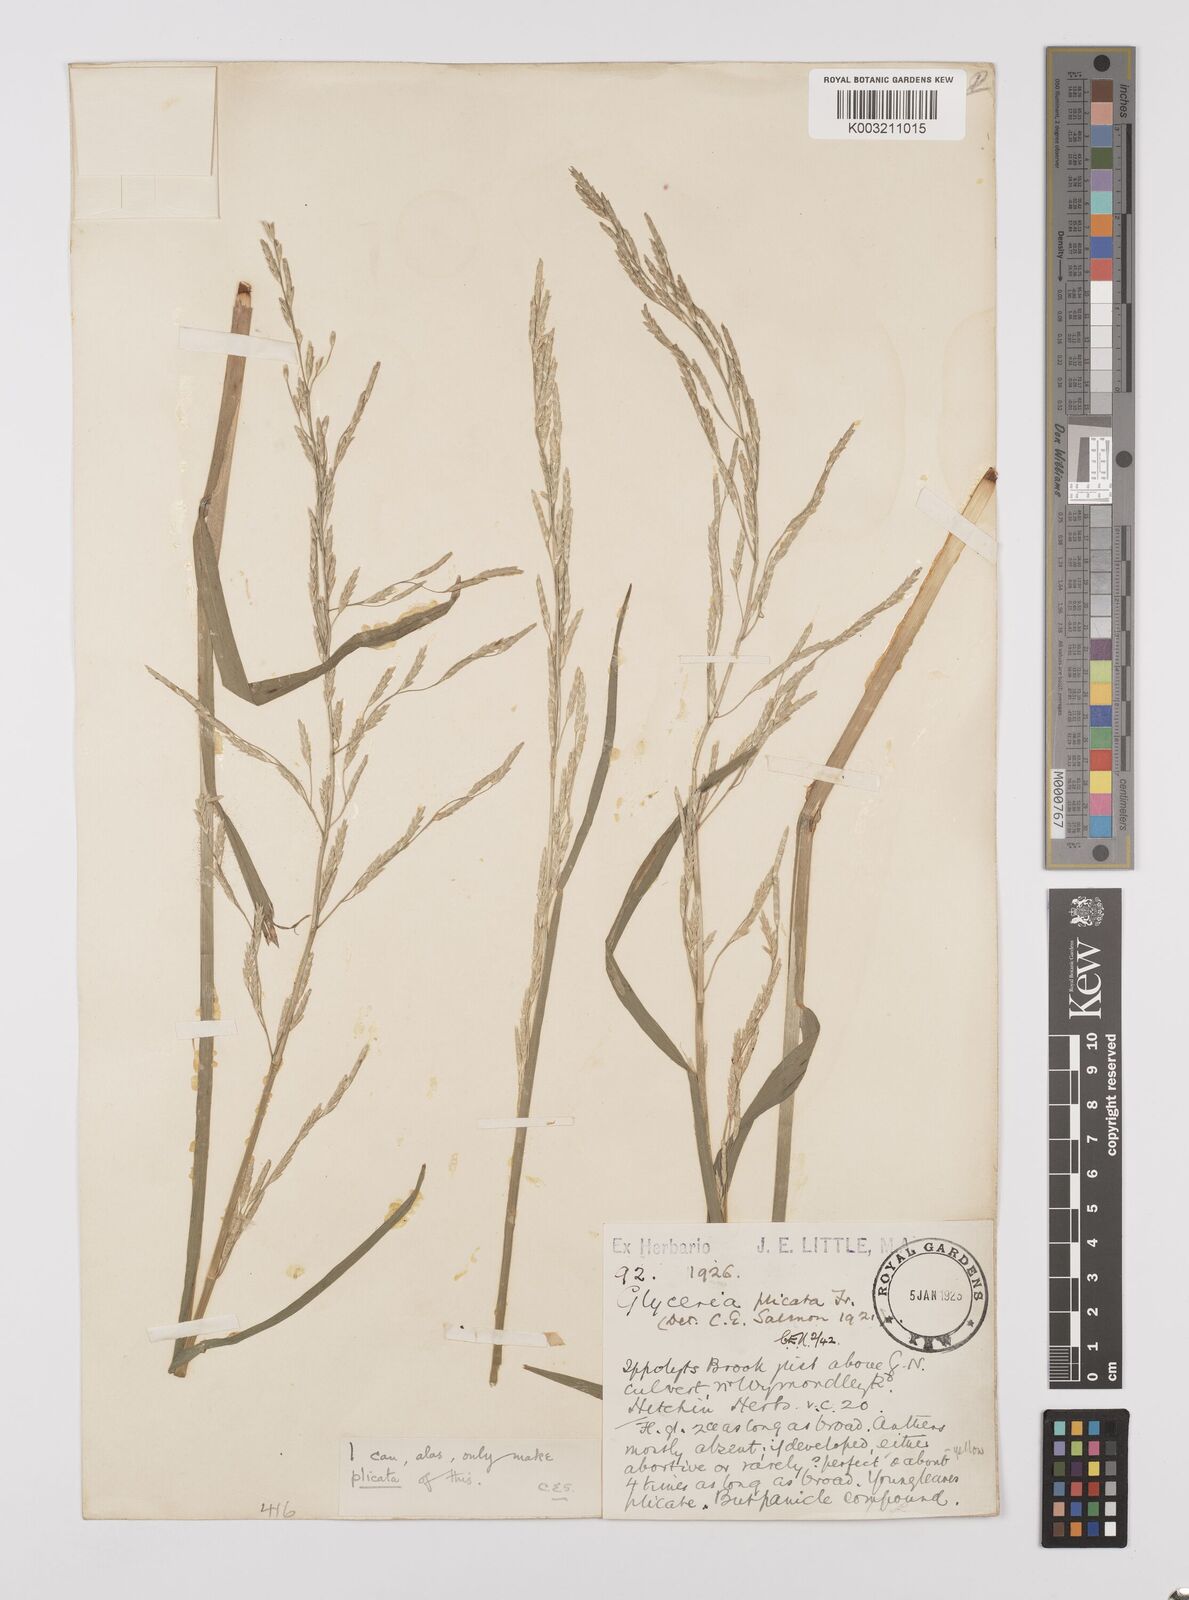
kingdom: Plantae
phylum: Tracheophyta
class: Liliopsida
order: Poales
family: Poaceae
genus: Glyceria
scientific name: Glyceria notata
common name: Plicate sweet-grass
